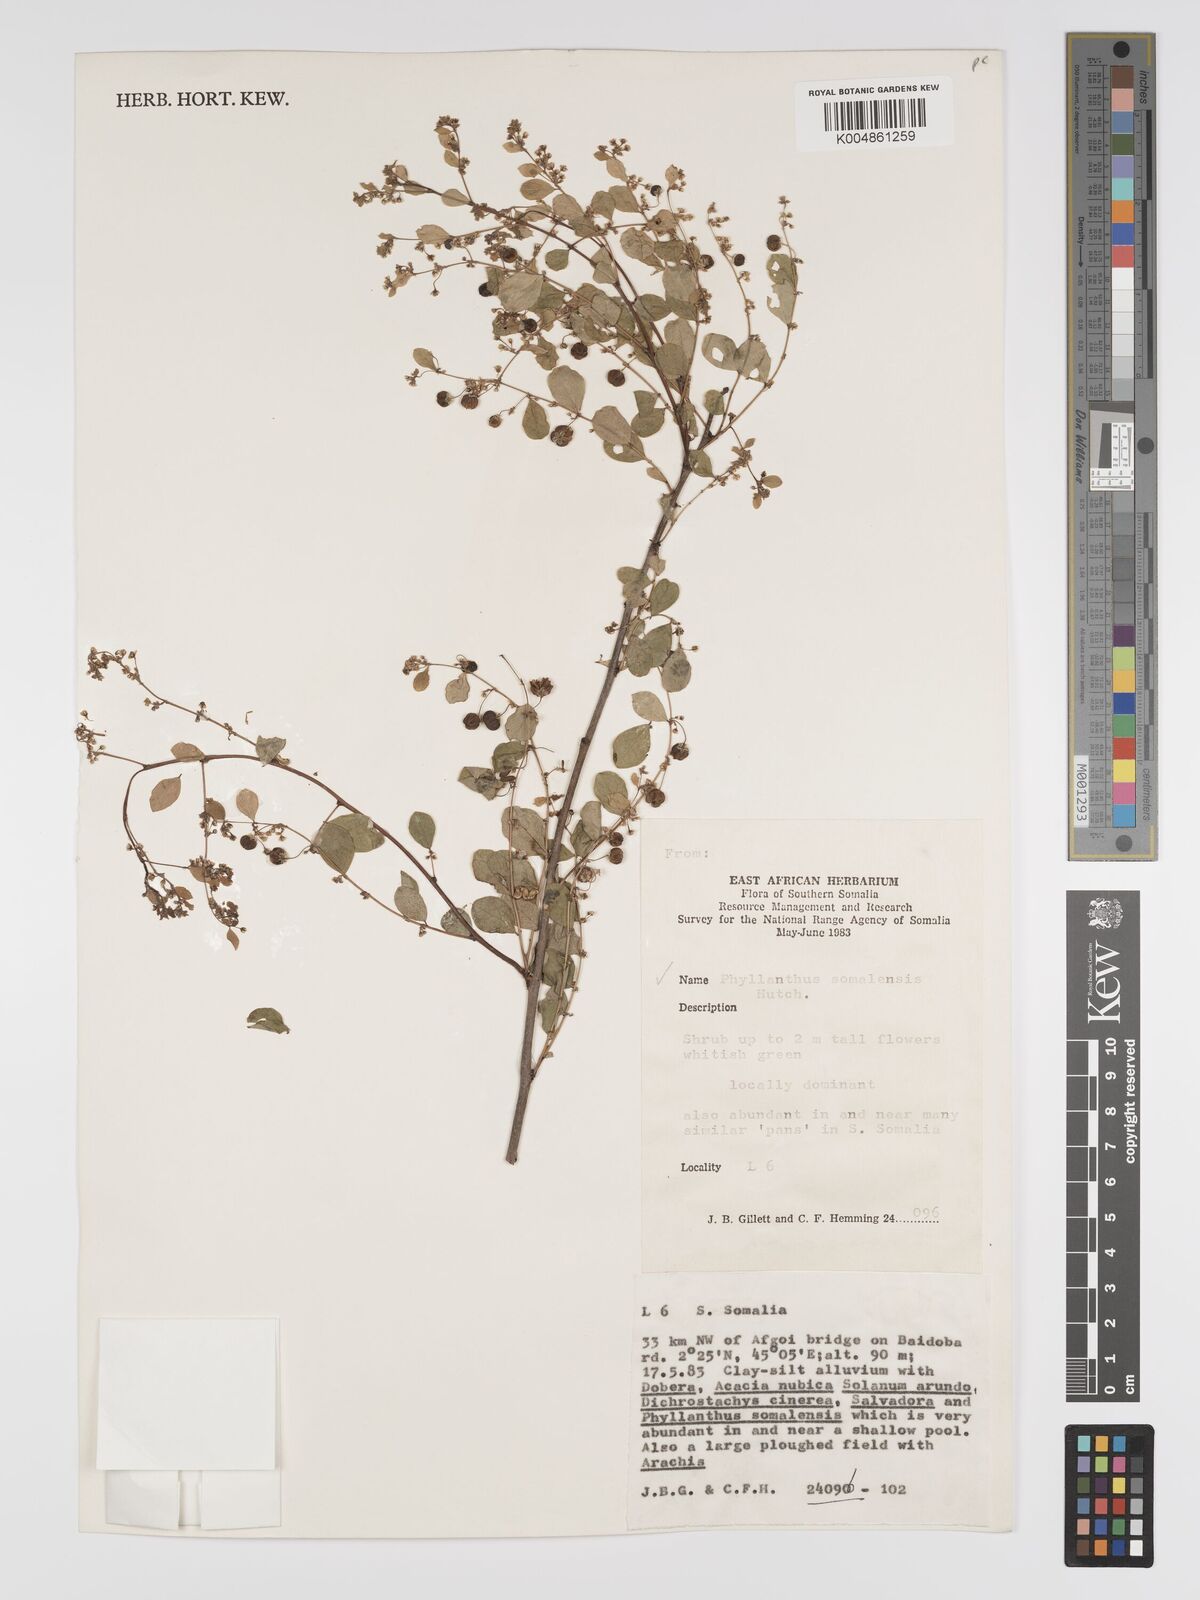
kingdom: Plantae
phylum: Tracheophyta
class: Magnoliopsida
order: Malpighiales
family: Phyllanthaceae
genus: Phyllanthus
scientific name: Phyllanthus somalensis
